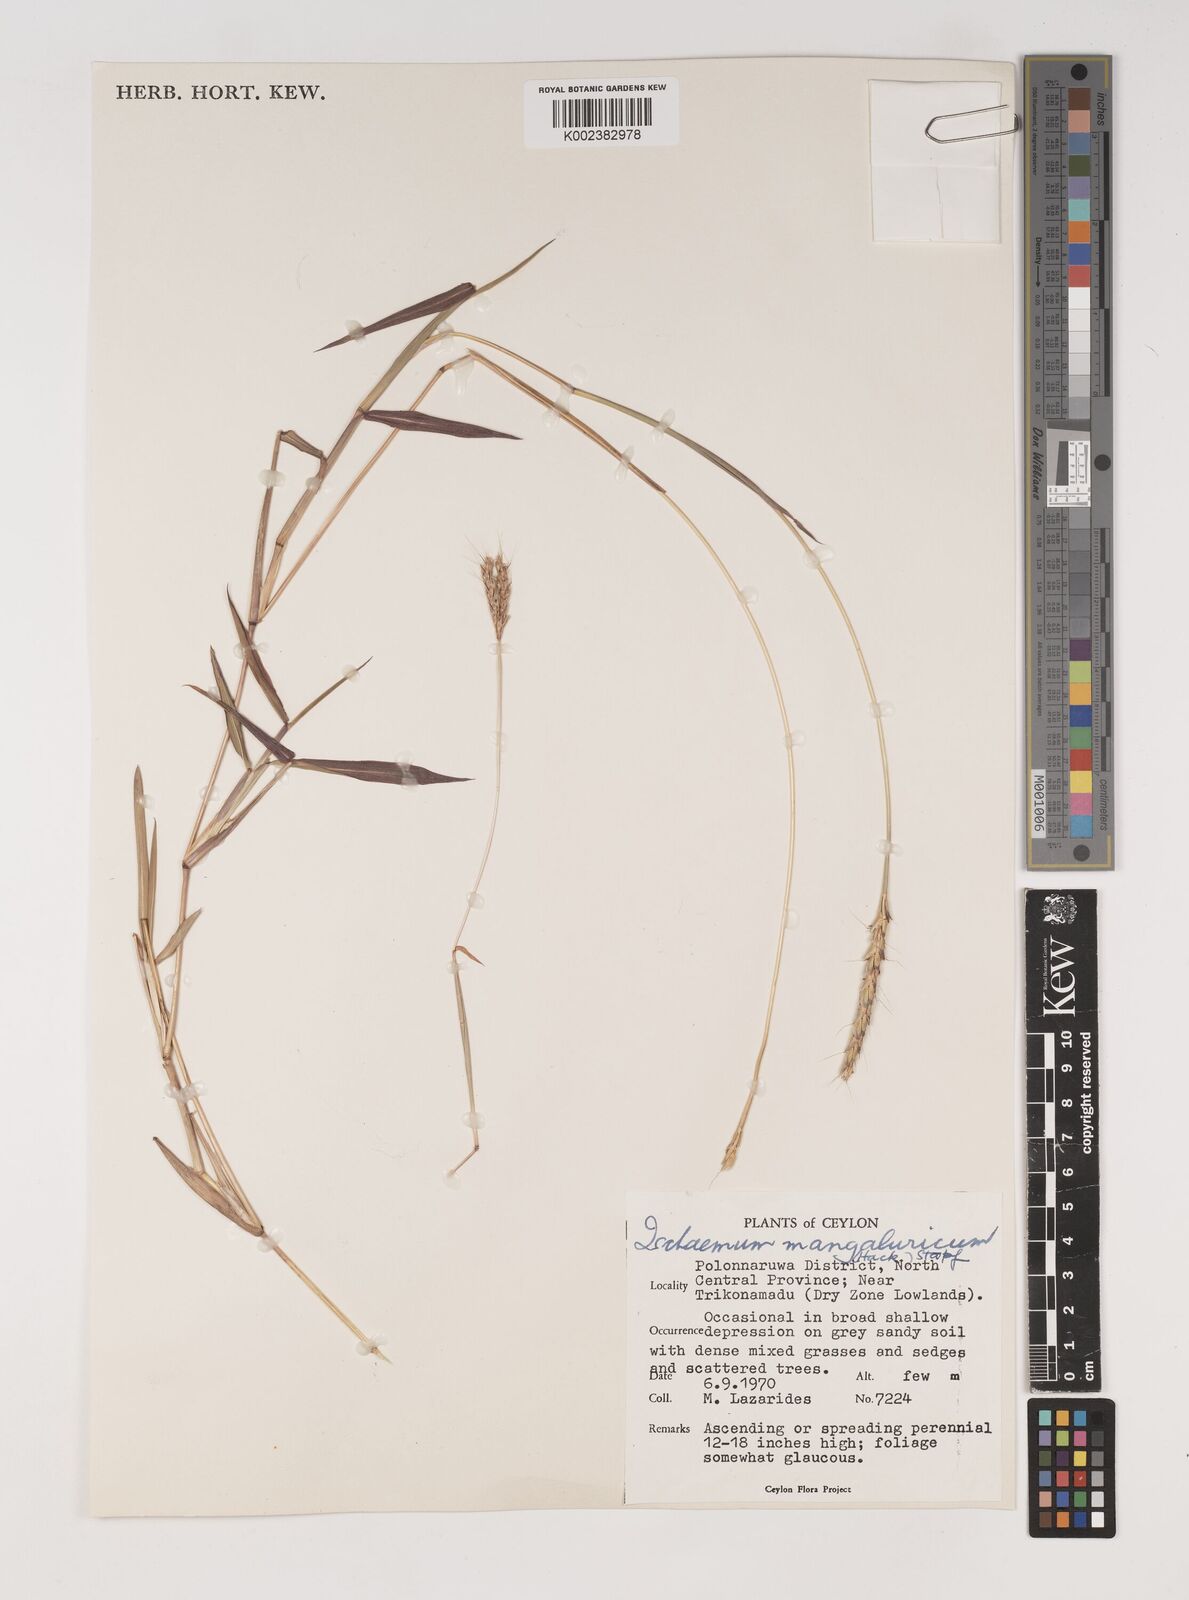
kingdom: Plantae
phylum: Tracheophyta
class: Liliopsida
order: Poales
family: Poaceae
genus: Ischaemum
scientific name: Ischaemum barbatum
